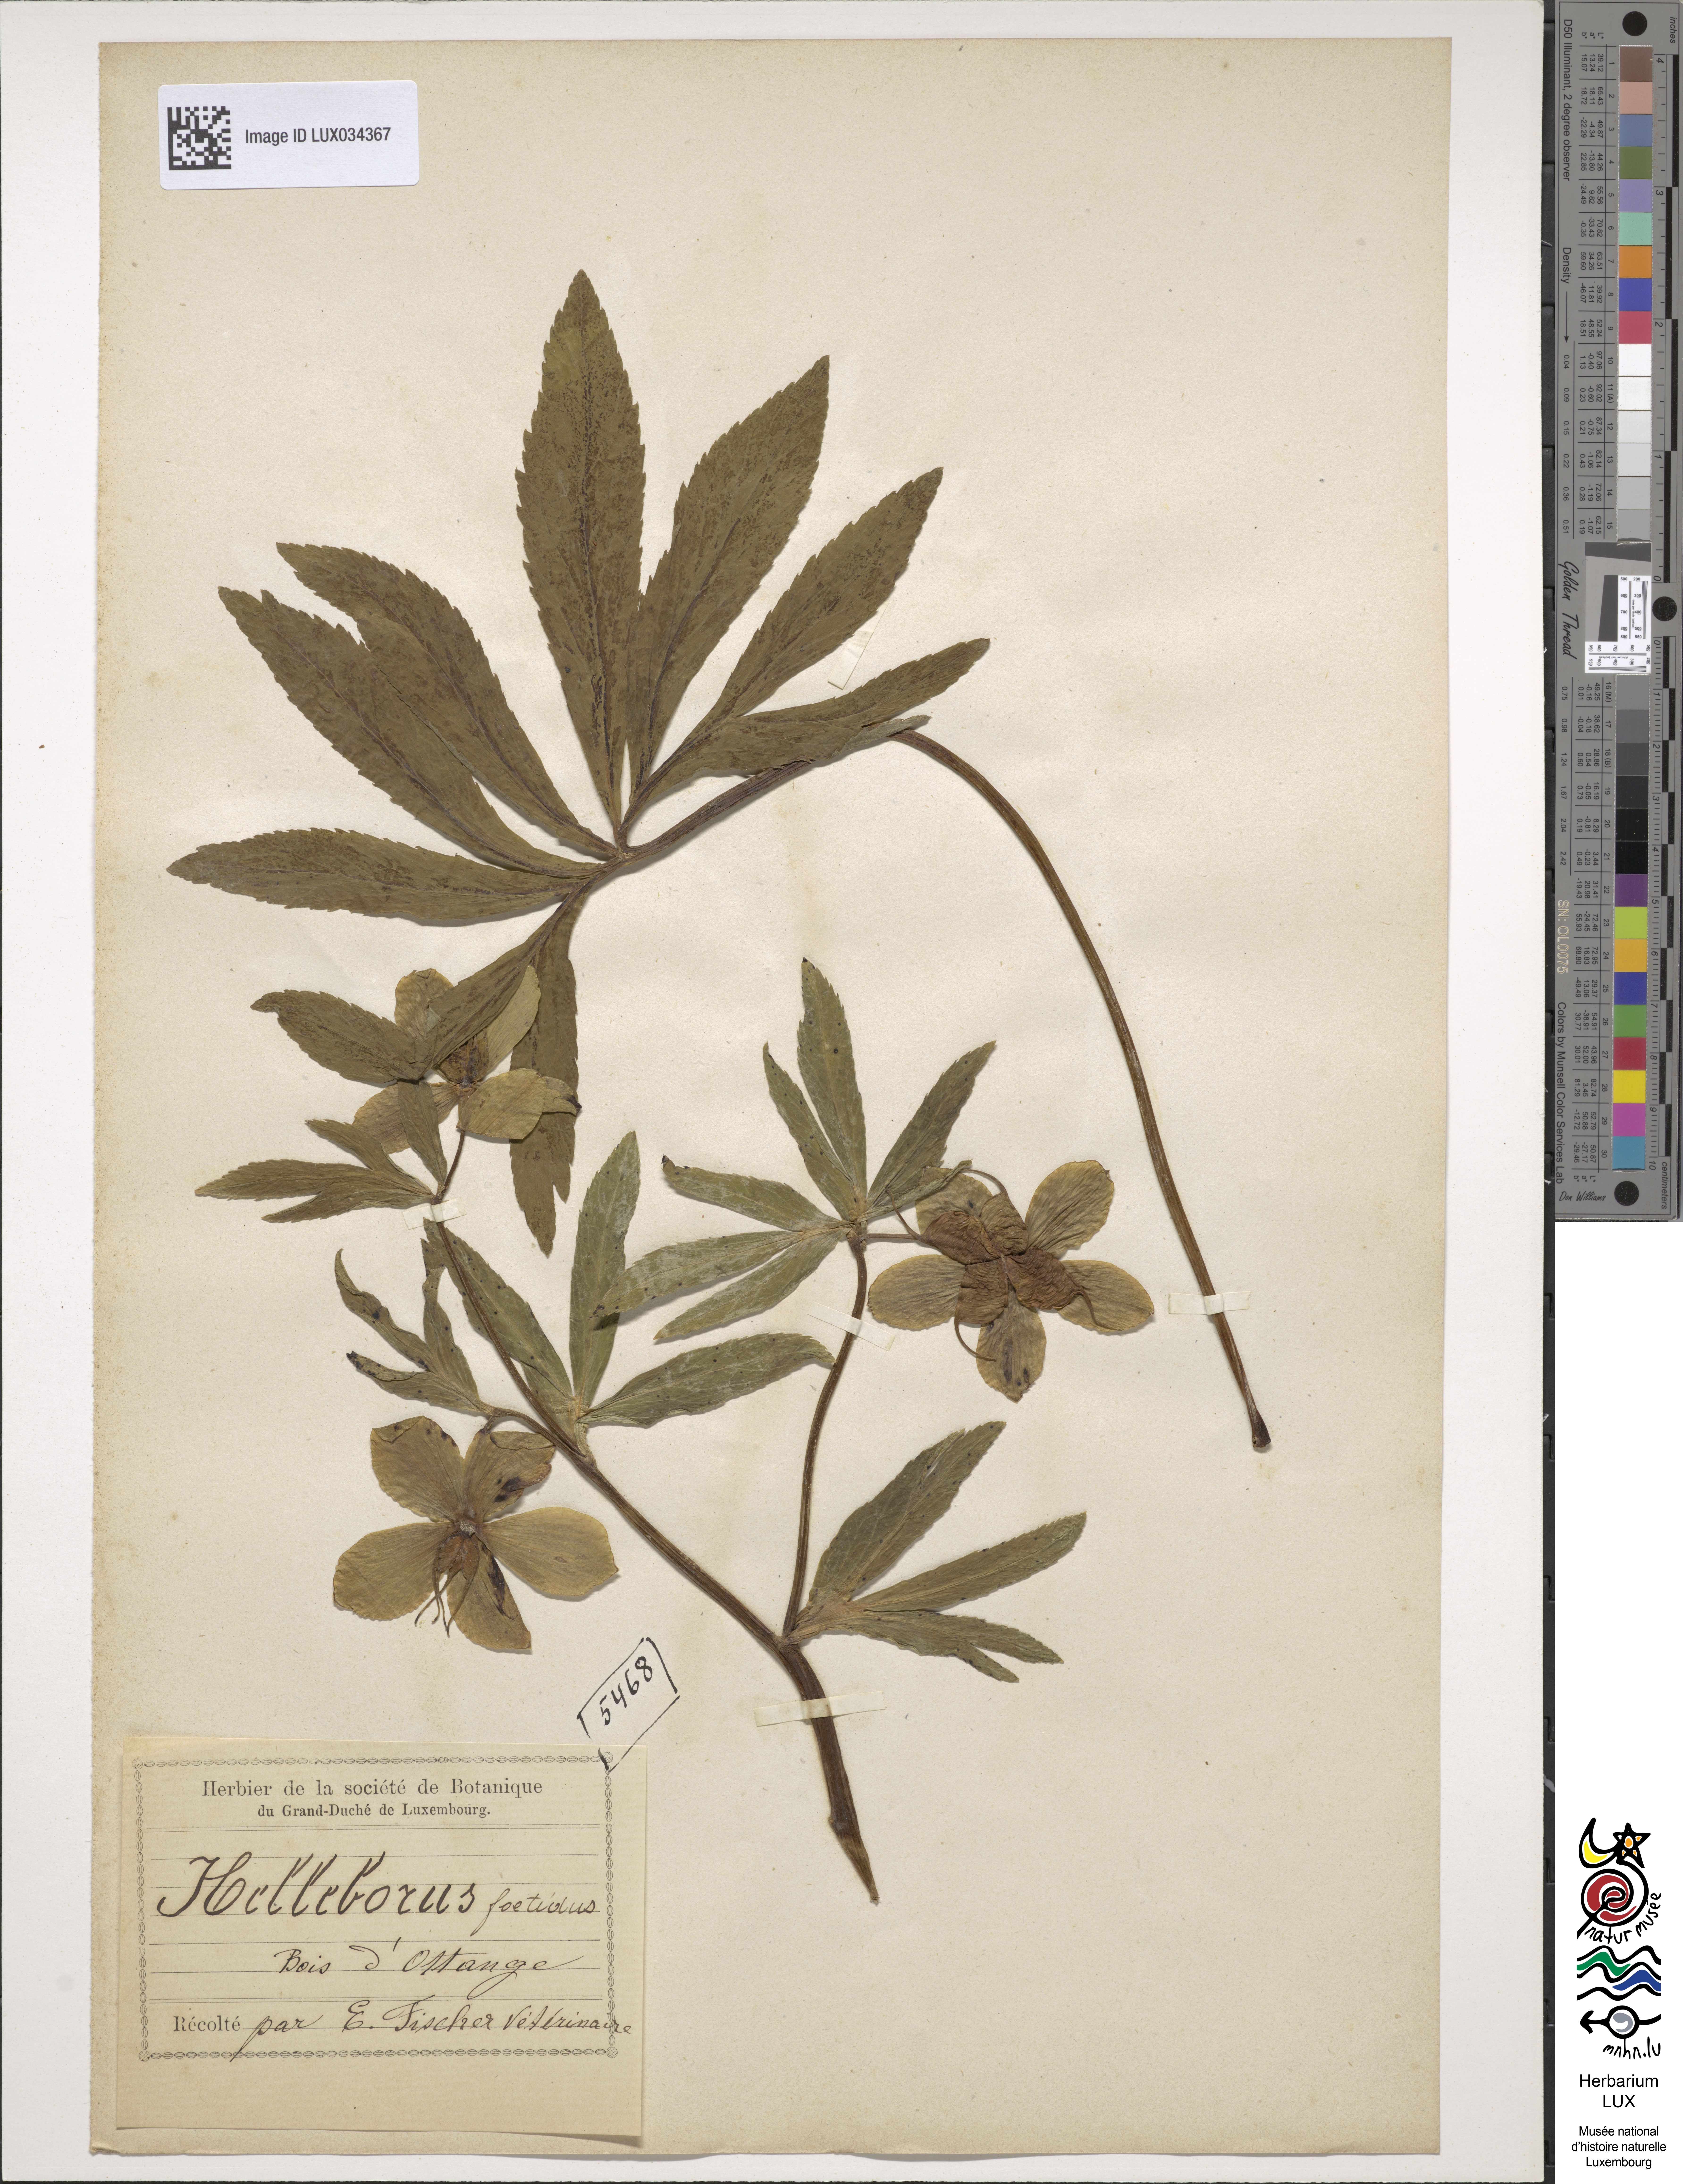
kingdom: Plantae
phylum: Tracheophyta
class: Magnoliopsida
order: Ranunculales
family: Ranunculaceae
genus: Helleborus
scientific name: Helleborus foetidus
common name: Stinking hellebore
